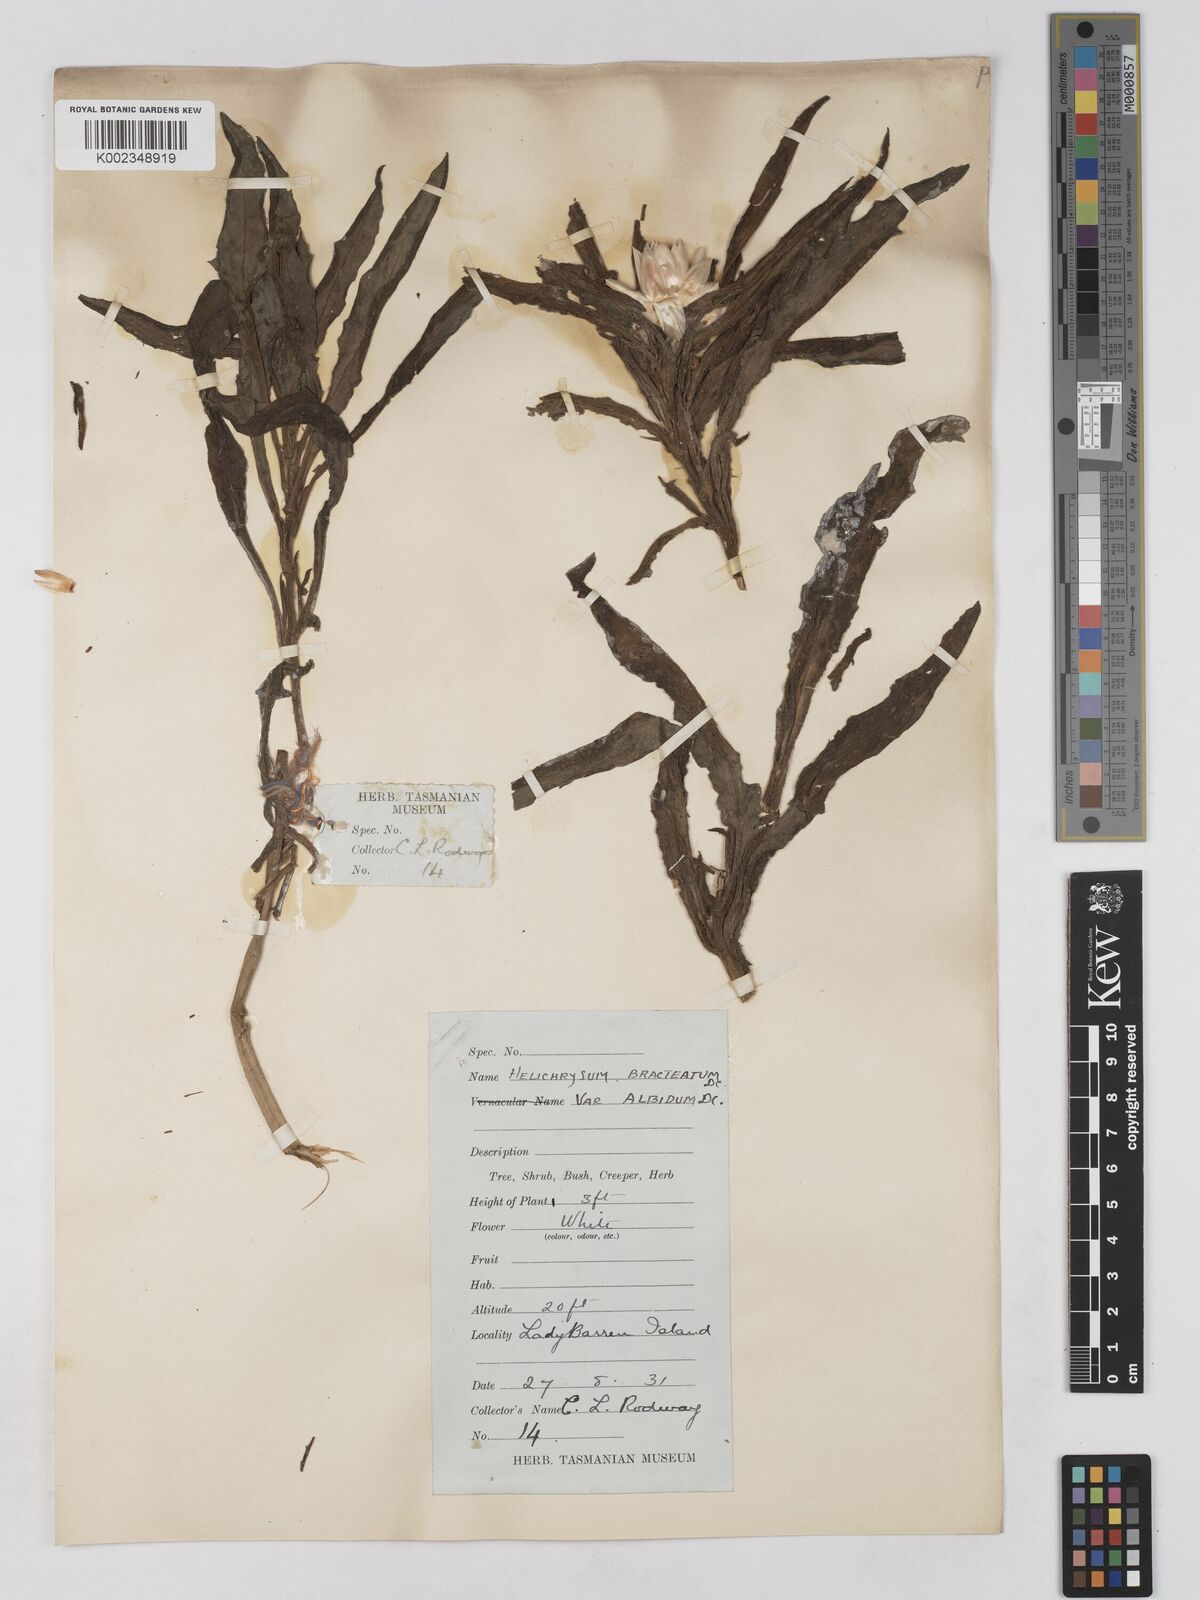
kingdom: Plantae
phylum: Tracheophyta
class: Magnoliopsida
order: Asterales
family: Asteraceae
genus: Xerochrysum
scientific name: Xerochrysum papillosum
